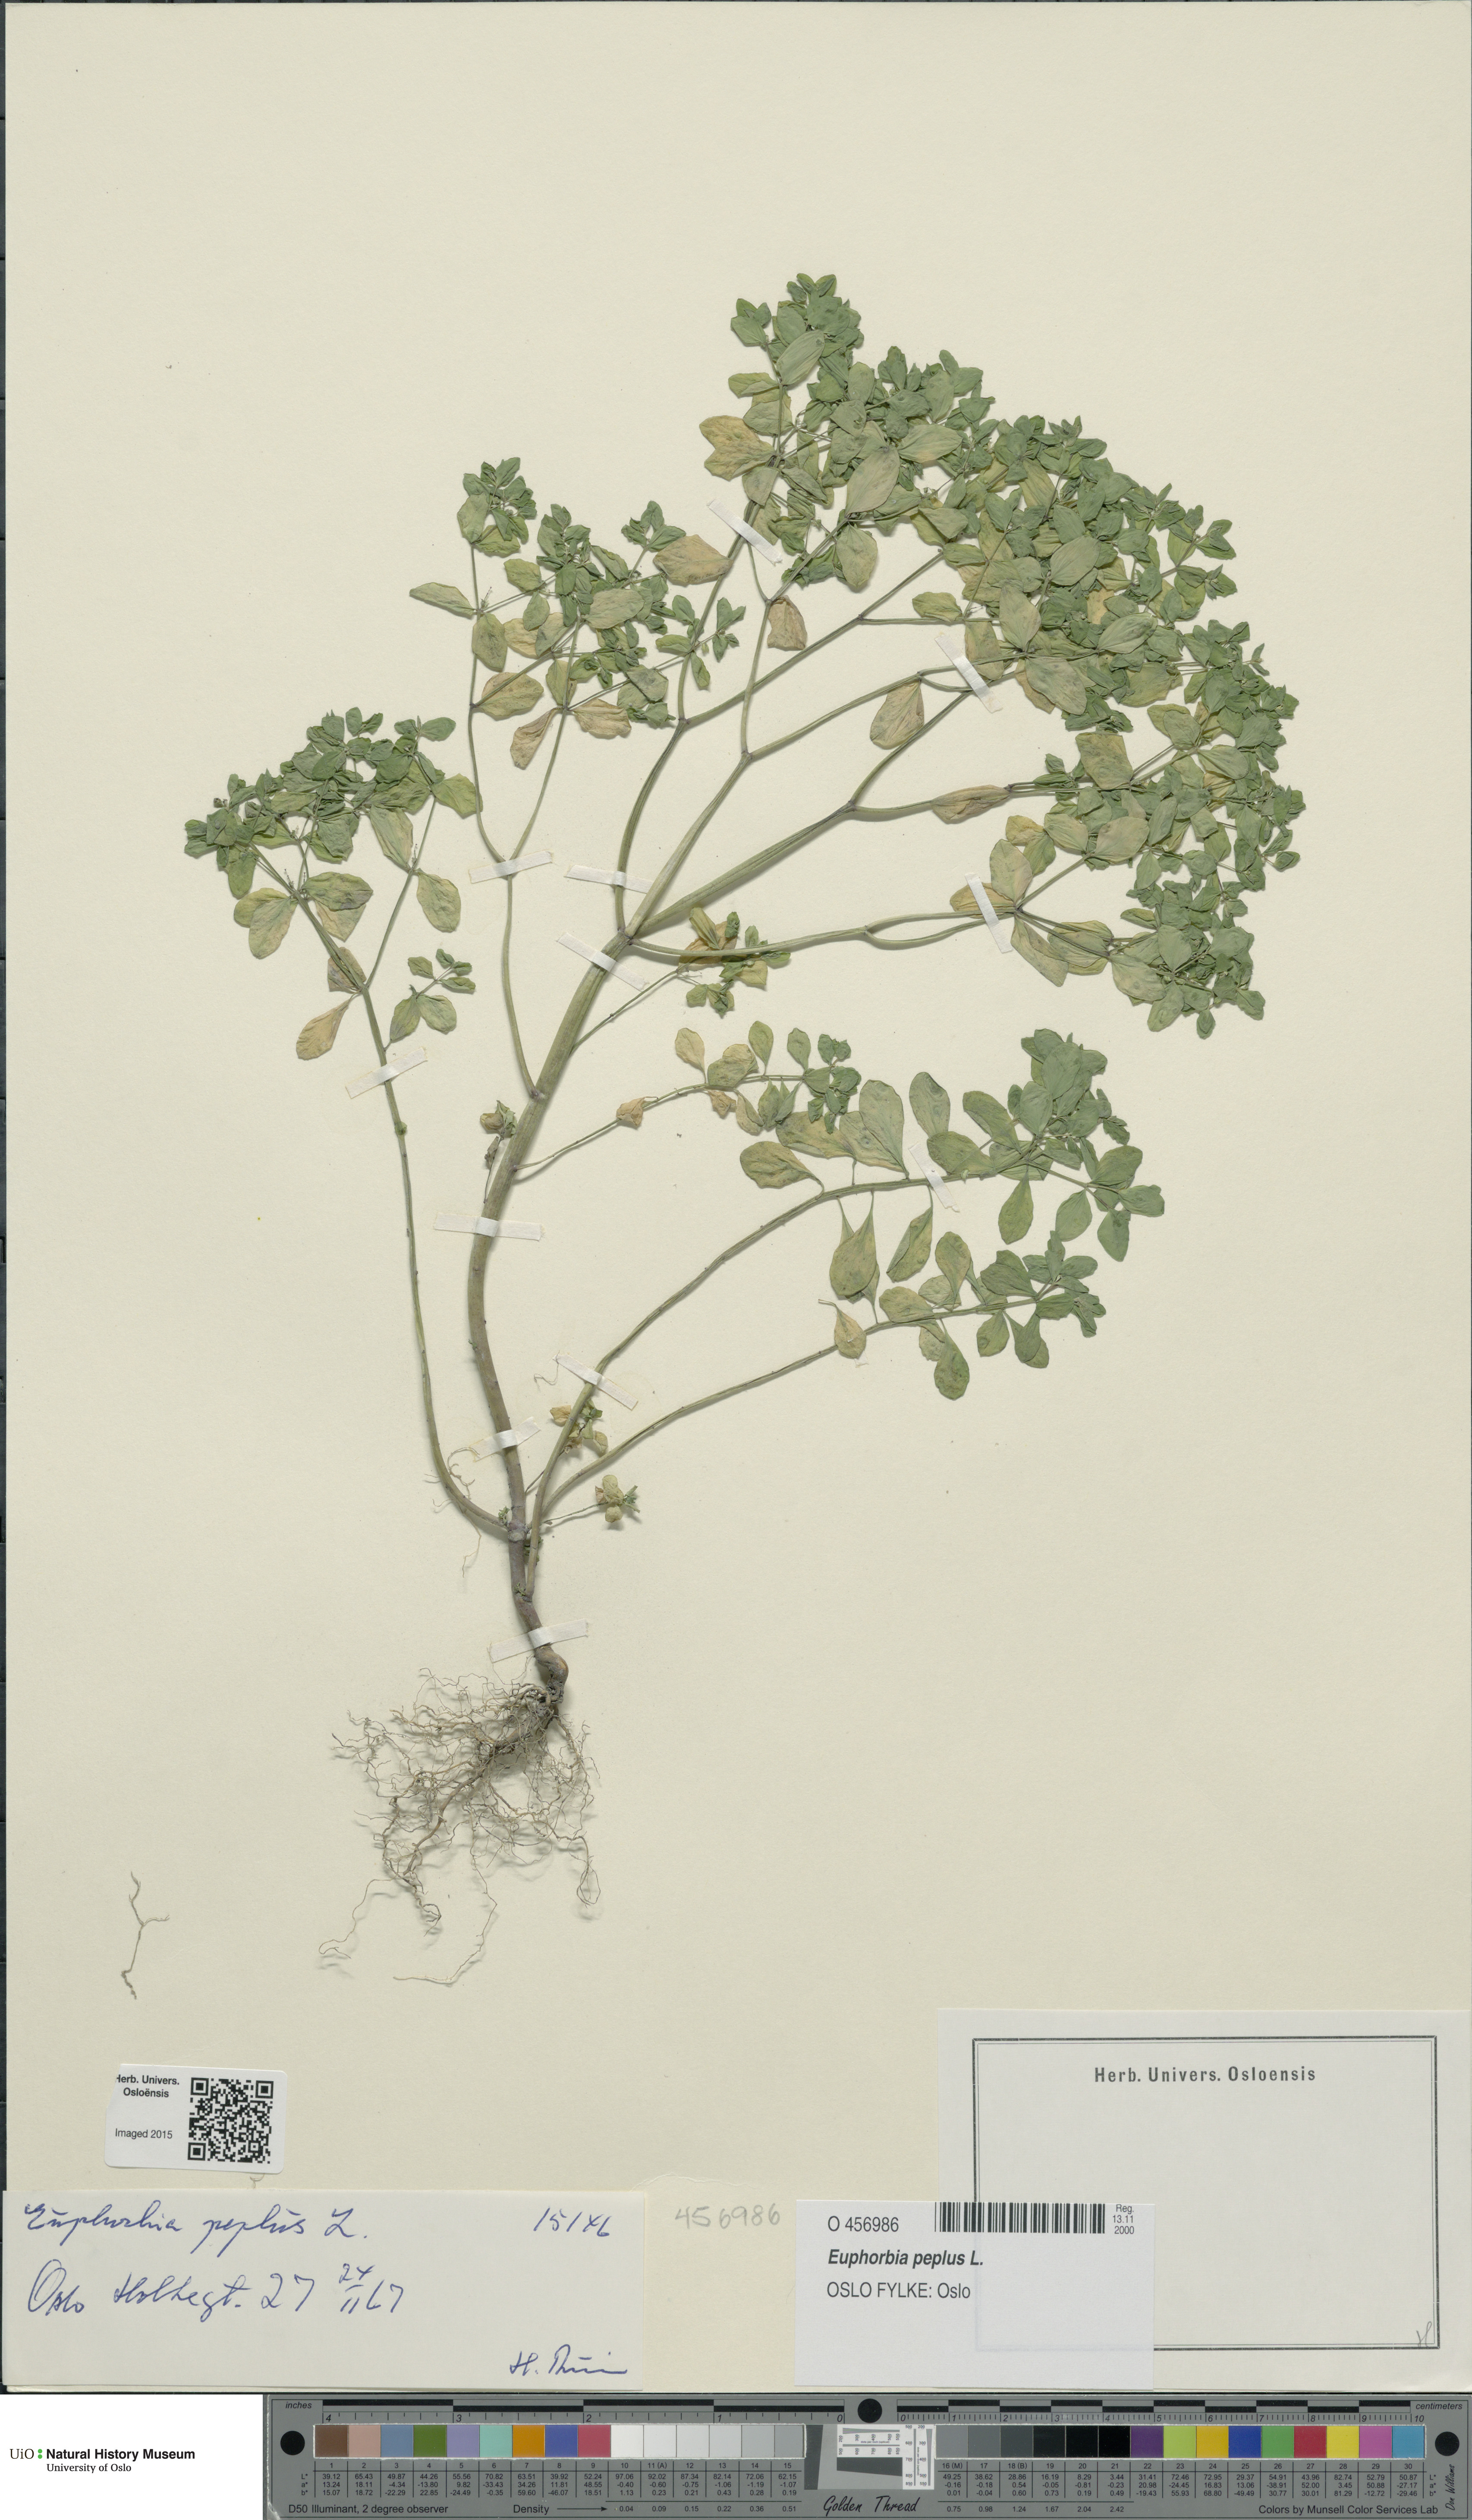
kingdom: Plantae
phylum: Tracheophyta
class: Magnoliopsida
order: Malpighiales
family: Euphorbiaceae
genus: Euphorbia
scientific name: Euphorbia peplus
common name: Petty spurge
